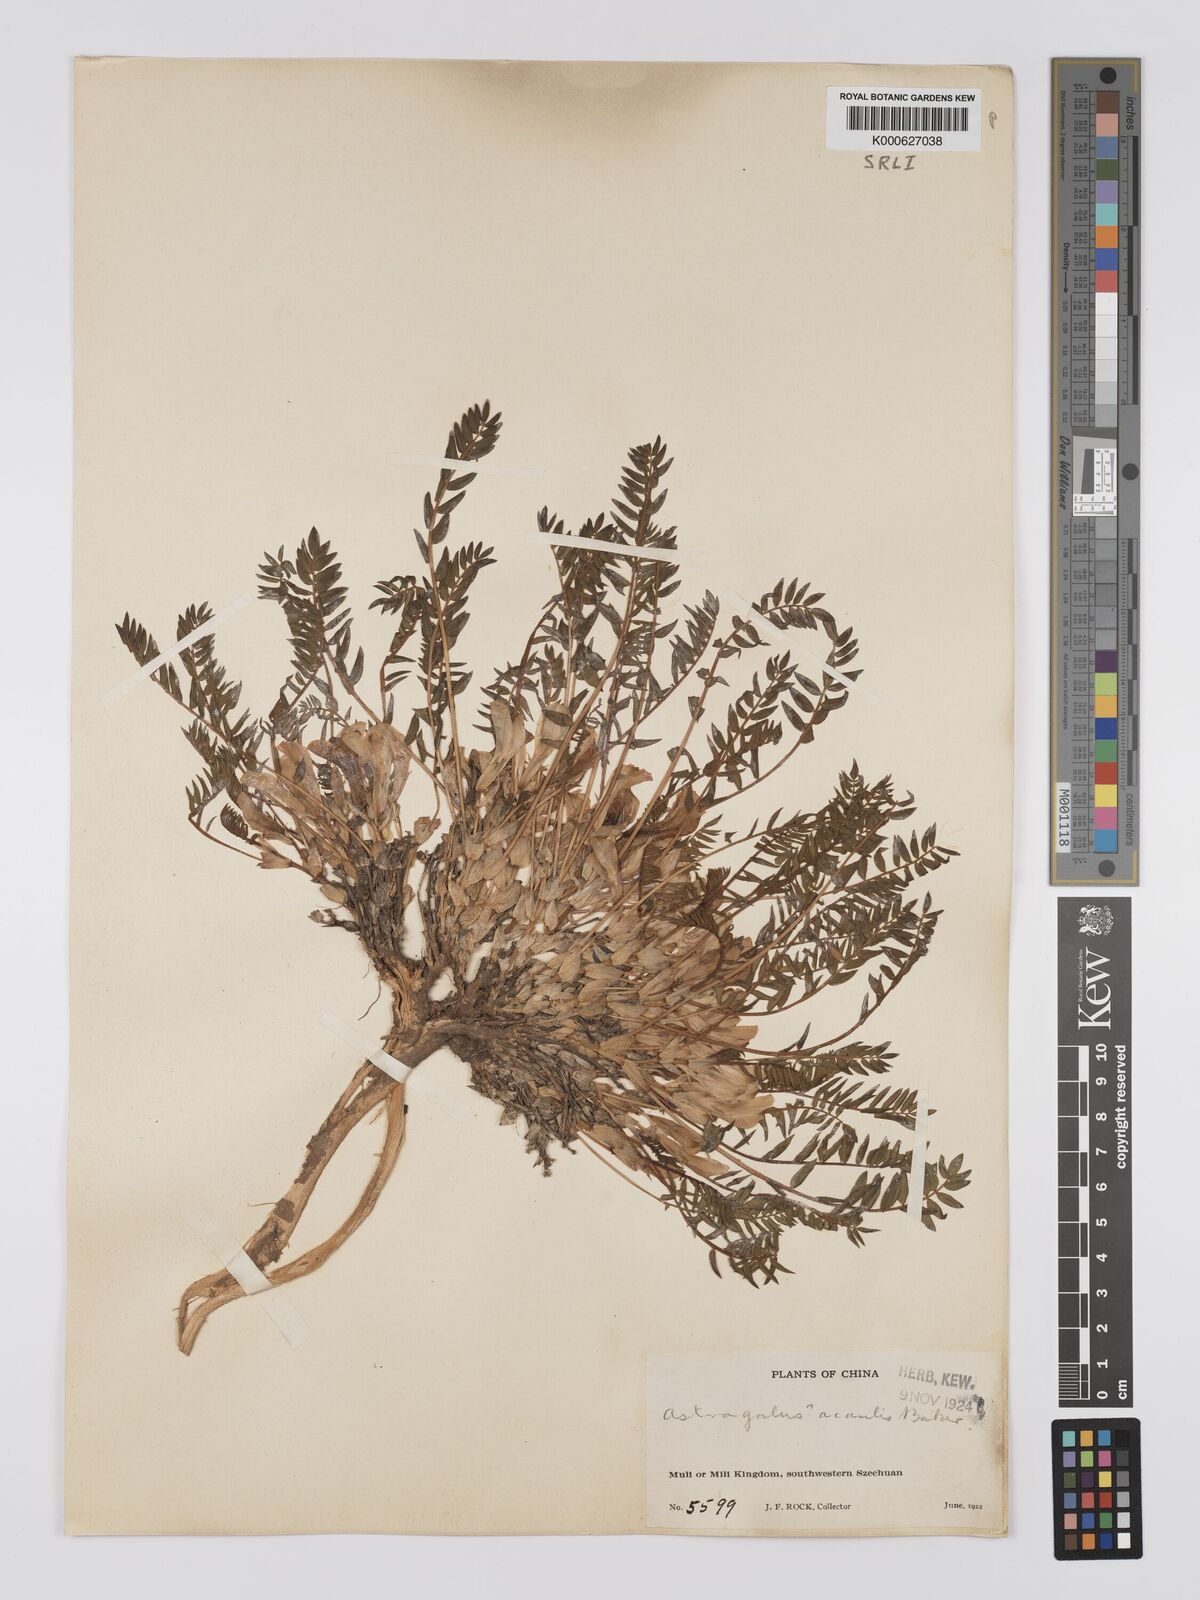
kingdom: Plantae
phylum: Tracheophyta
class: Magnoliopsida
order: Fabales
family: Fabaceae
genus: Astragalus
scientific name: Astragalus acaulis
